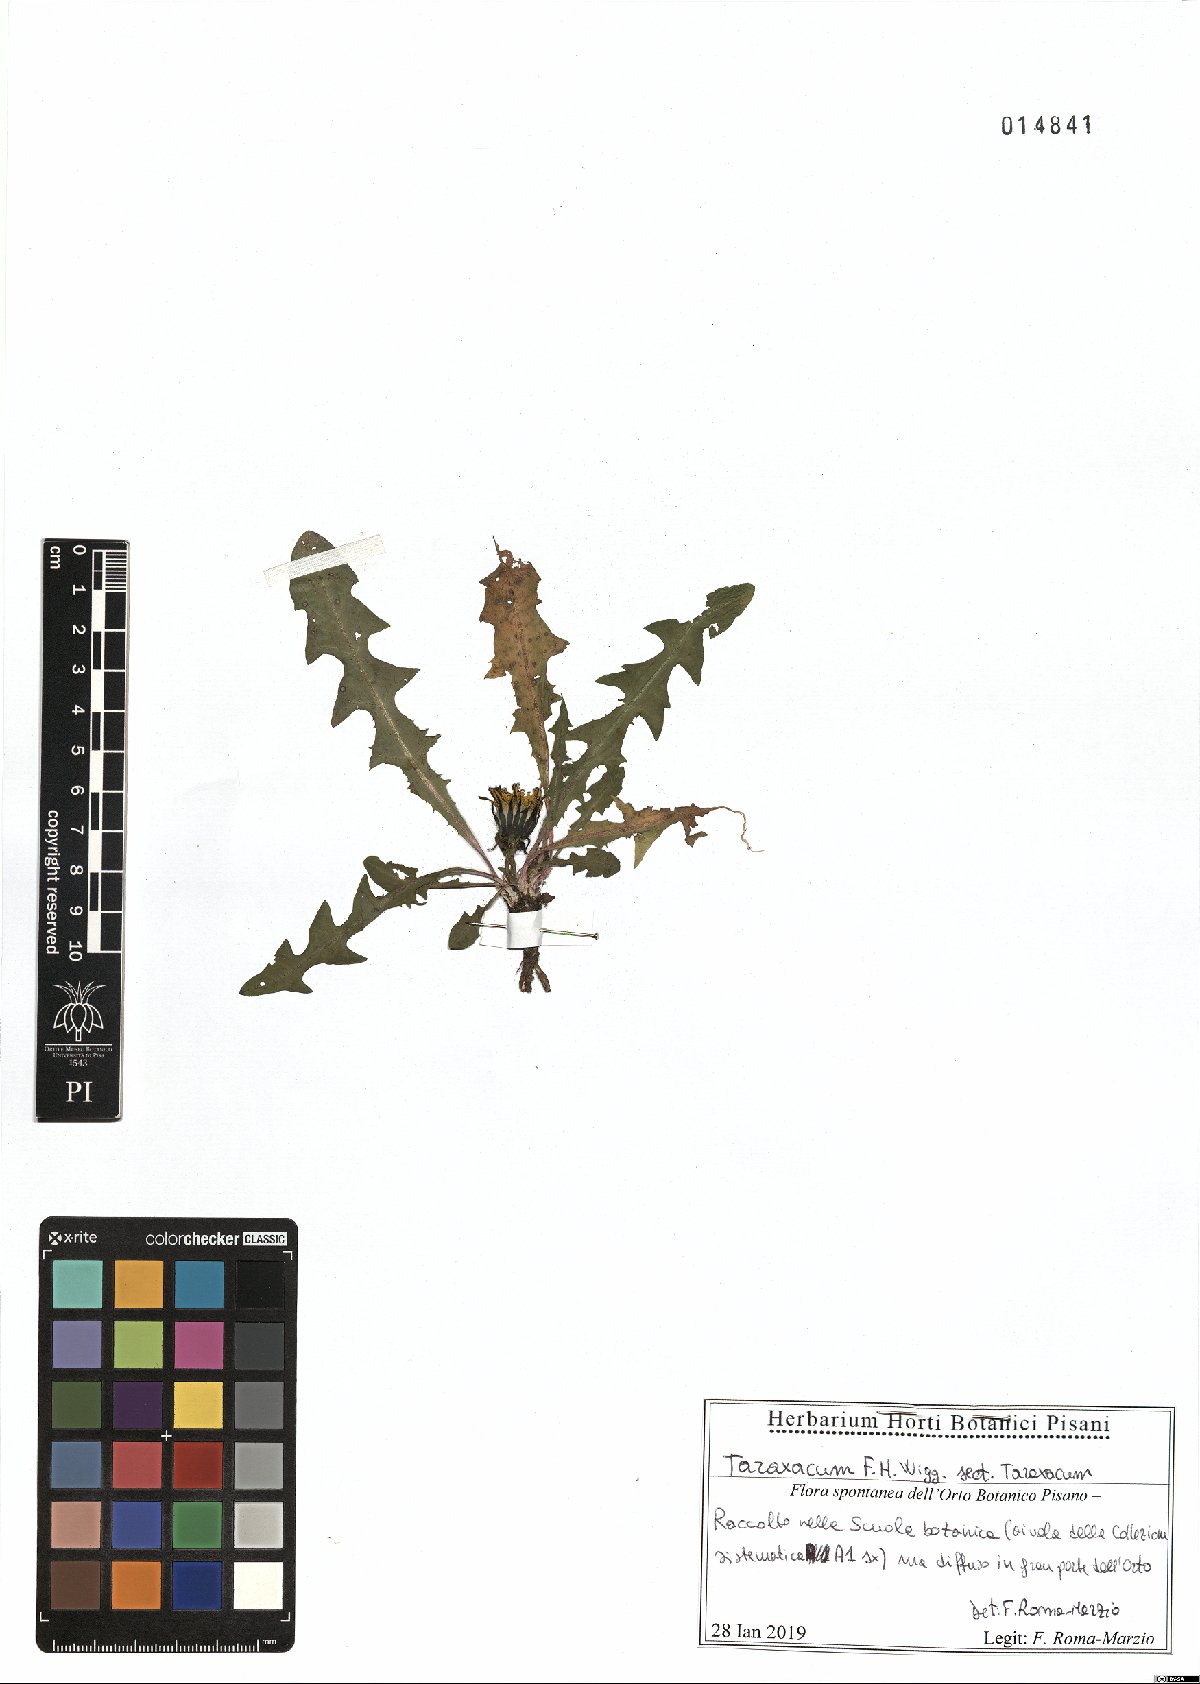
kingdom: Plantae
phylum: Tracheophyta
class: Magnoliopsida
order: Asterales
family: Asteraceae
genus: Taraxacum
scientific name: Taraxacum officinale
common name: Common dandelion
